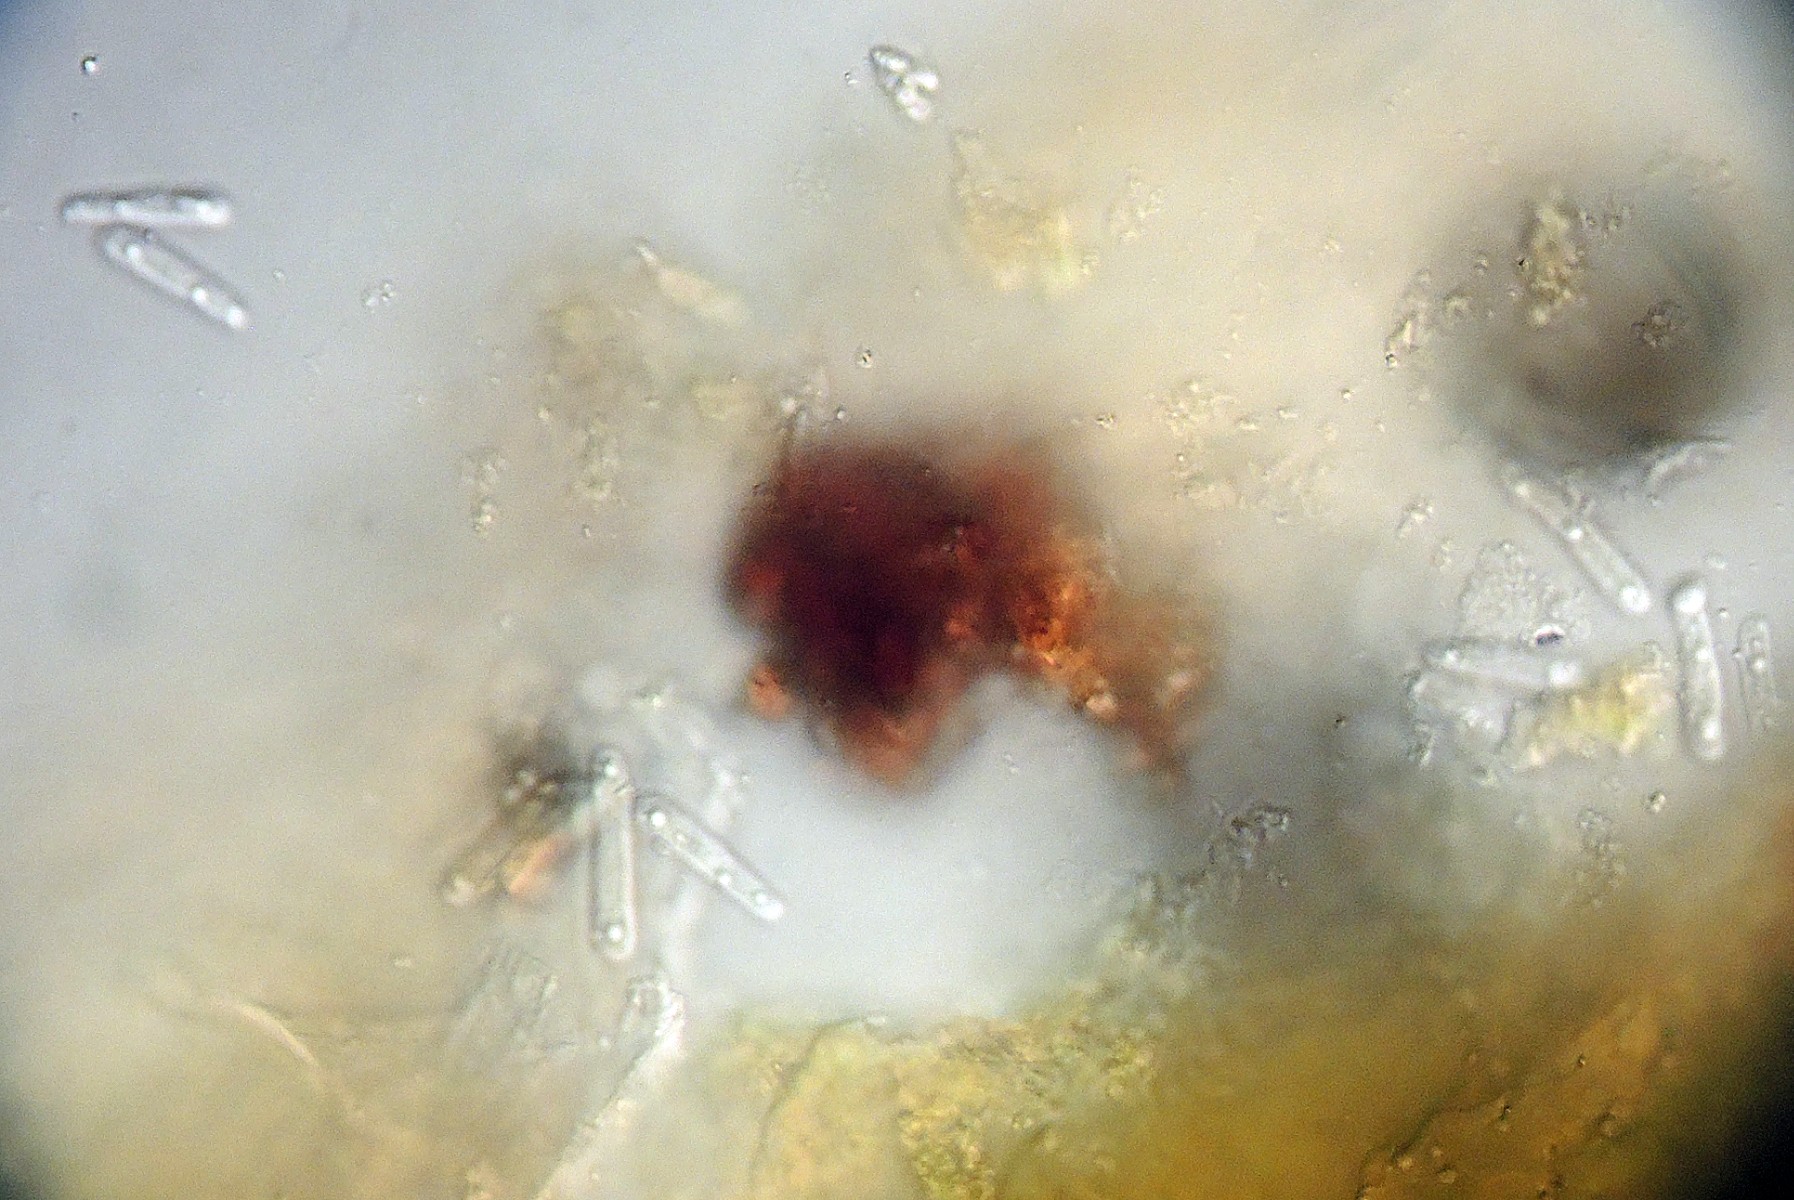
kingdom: Fungi
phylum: Ascomycota
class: Dothideomycetes
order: Asterinales
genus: Discogloeum
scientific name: Discogloeum veronicae
